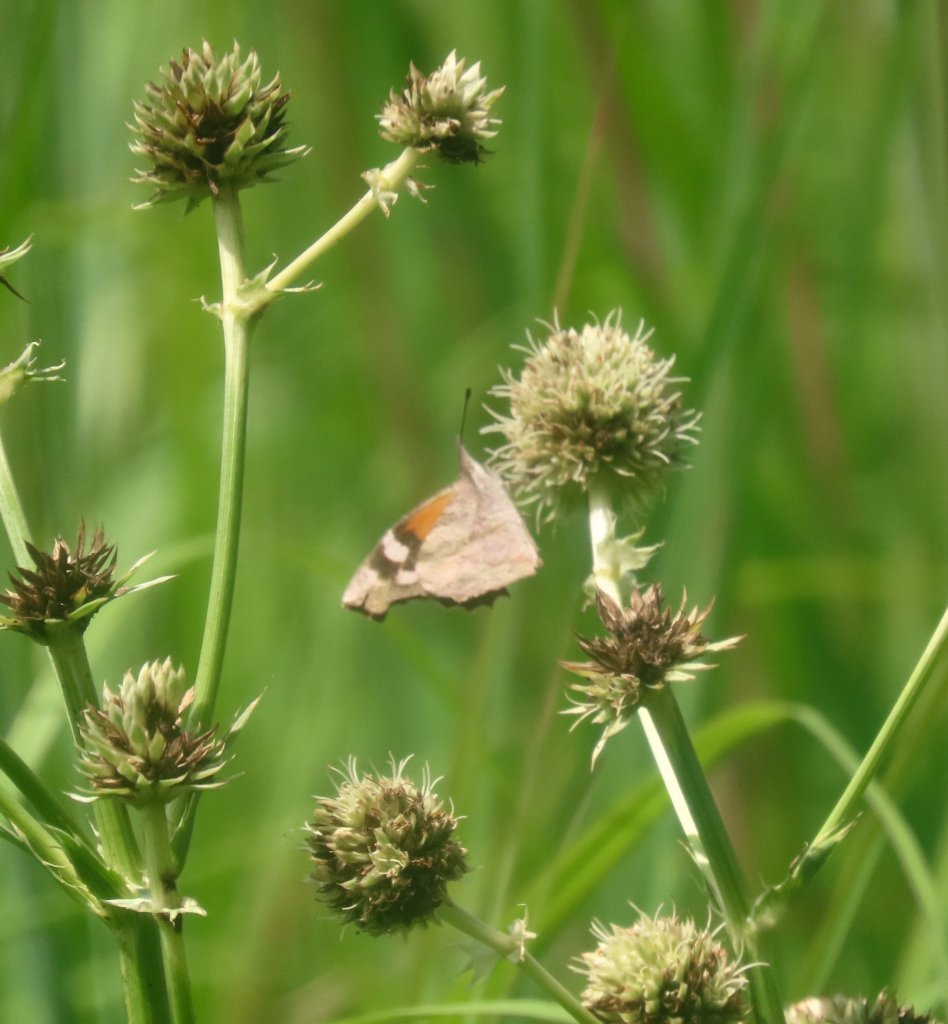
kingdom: Animalia
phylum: Arthropoda
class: Insecta
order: Lepidoptera
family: Nymphalidae
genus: Libytheana
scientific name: Libytheana carinenta
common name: American Snout
